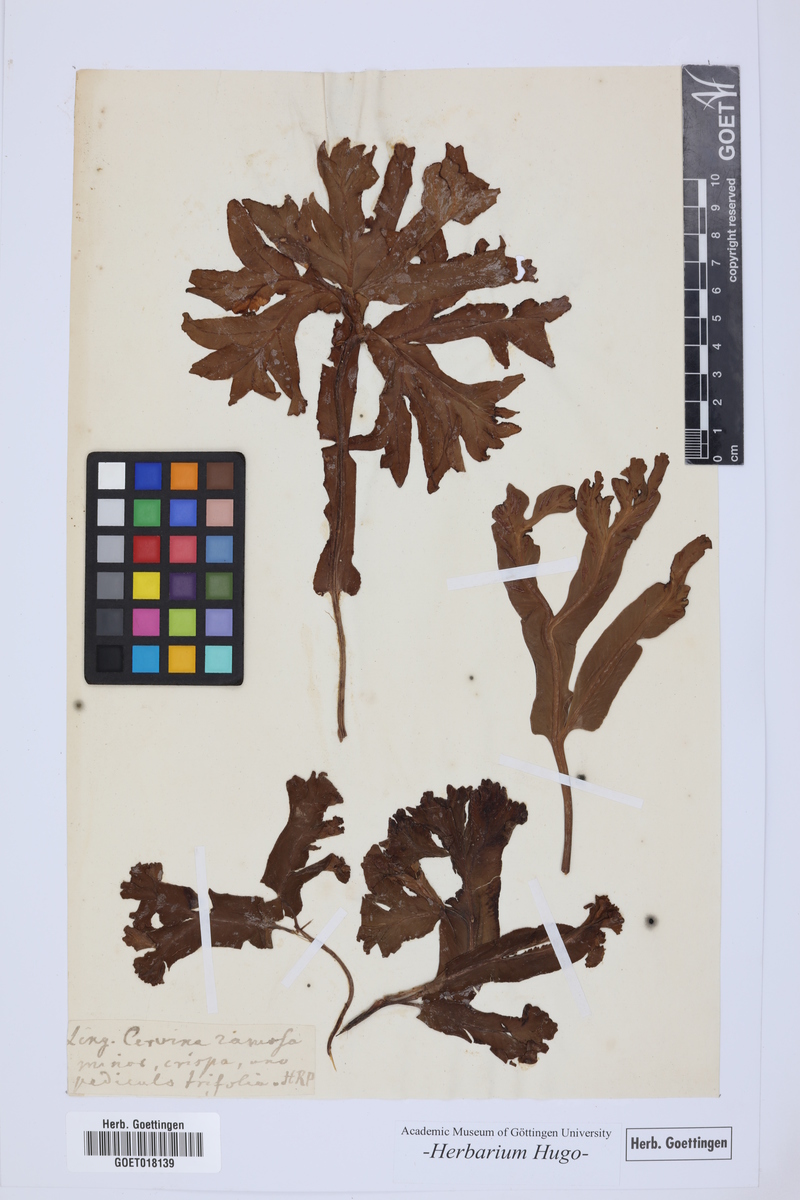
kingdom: Plantae
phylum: Tracheophyta
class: Polypodiopsida
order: Polypodiales
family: Aspleniaceae
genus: Asplenium
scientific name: Asplenium scolopendrium
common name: Hart's-tongue fern
